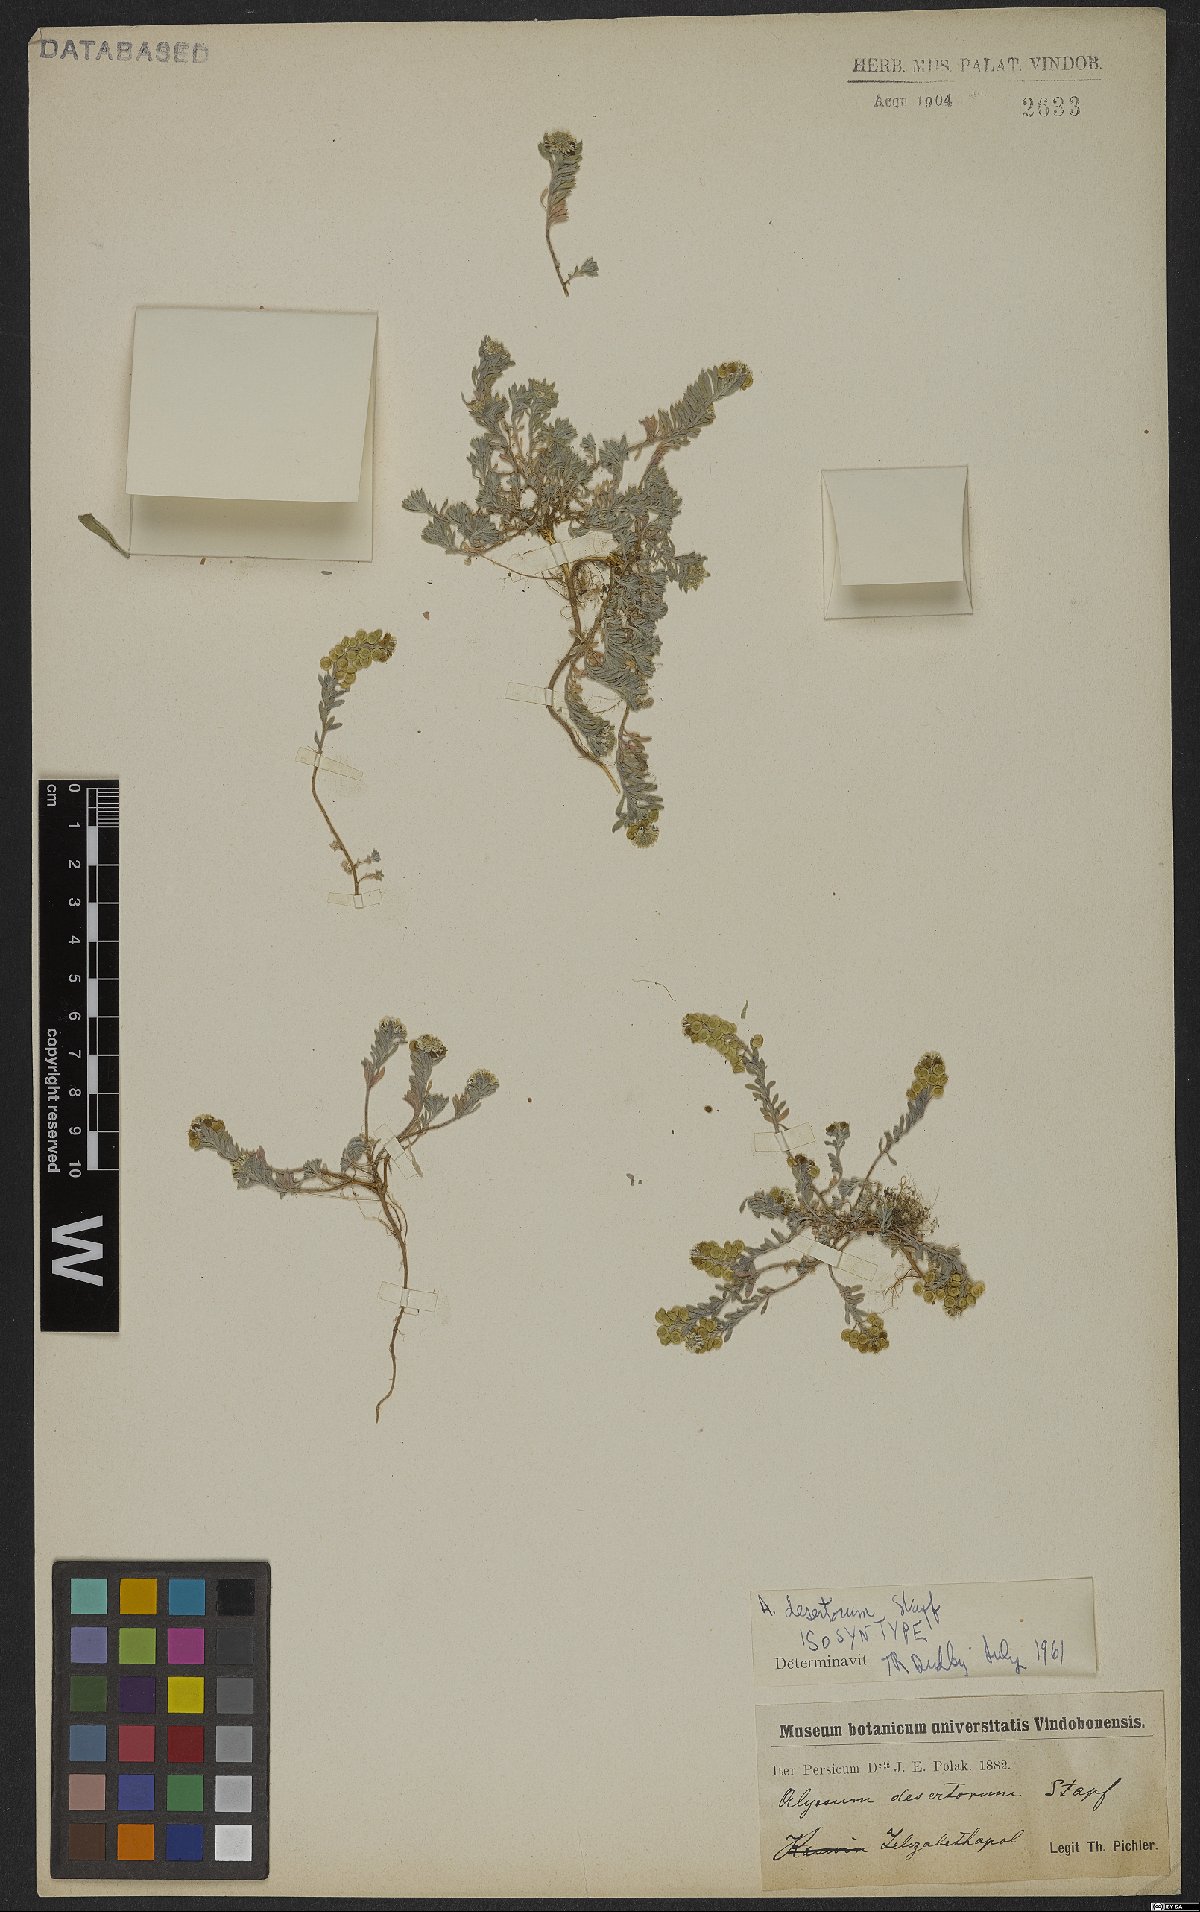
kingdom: Plantae
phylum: Tracheophyta
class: Magnoliopsida
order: Brassicales
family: Brassicaceae
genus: Alyssum
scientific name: Alyssum turkestanicum
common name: Desert alyssum
